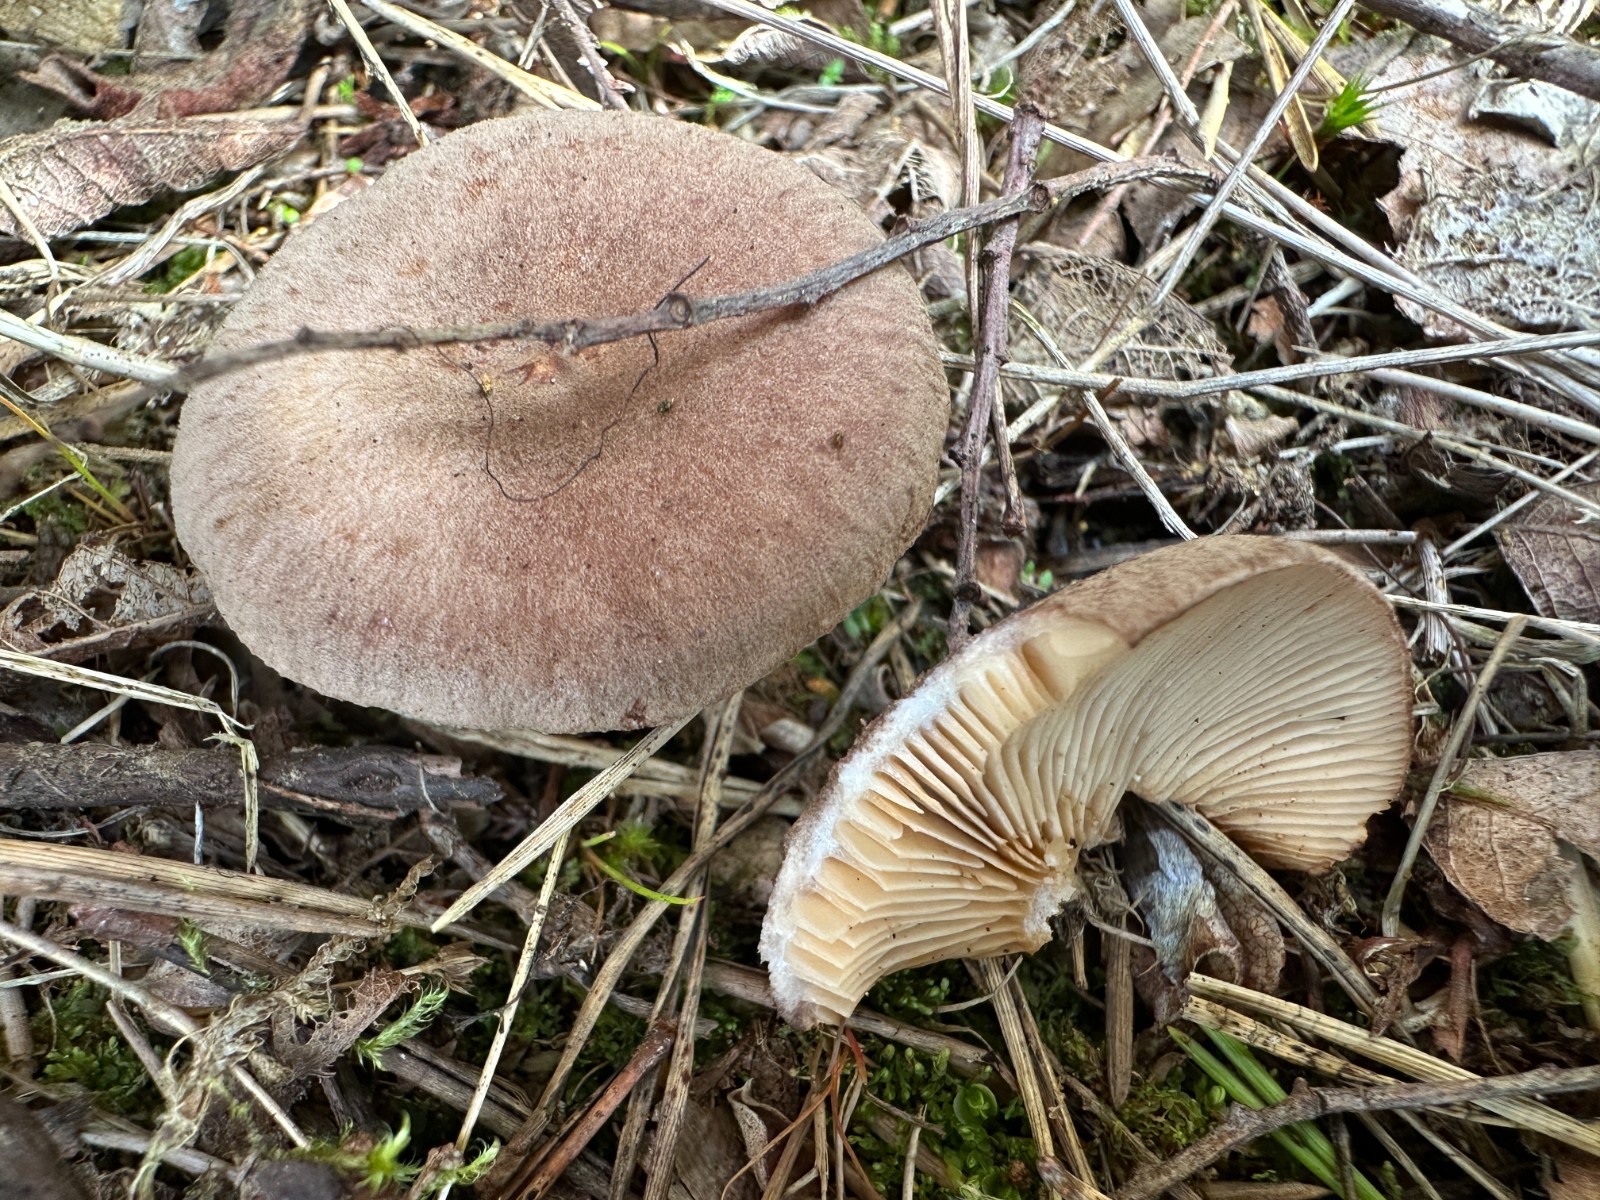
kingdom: Fungi
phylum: Basidiomycota
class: Agaricomycetes
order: Russulales
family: Russulaceae
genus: Lactarius
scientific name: Lactarius mammosus
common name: kokosbrun mælkehat
